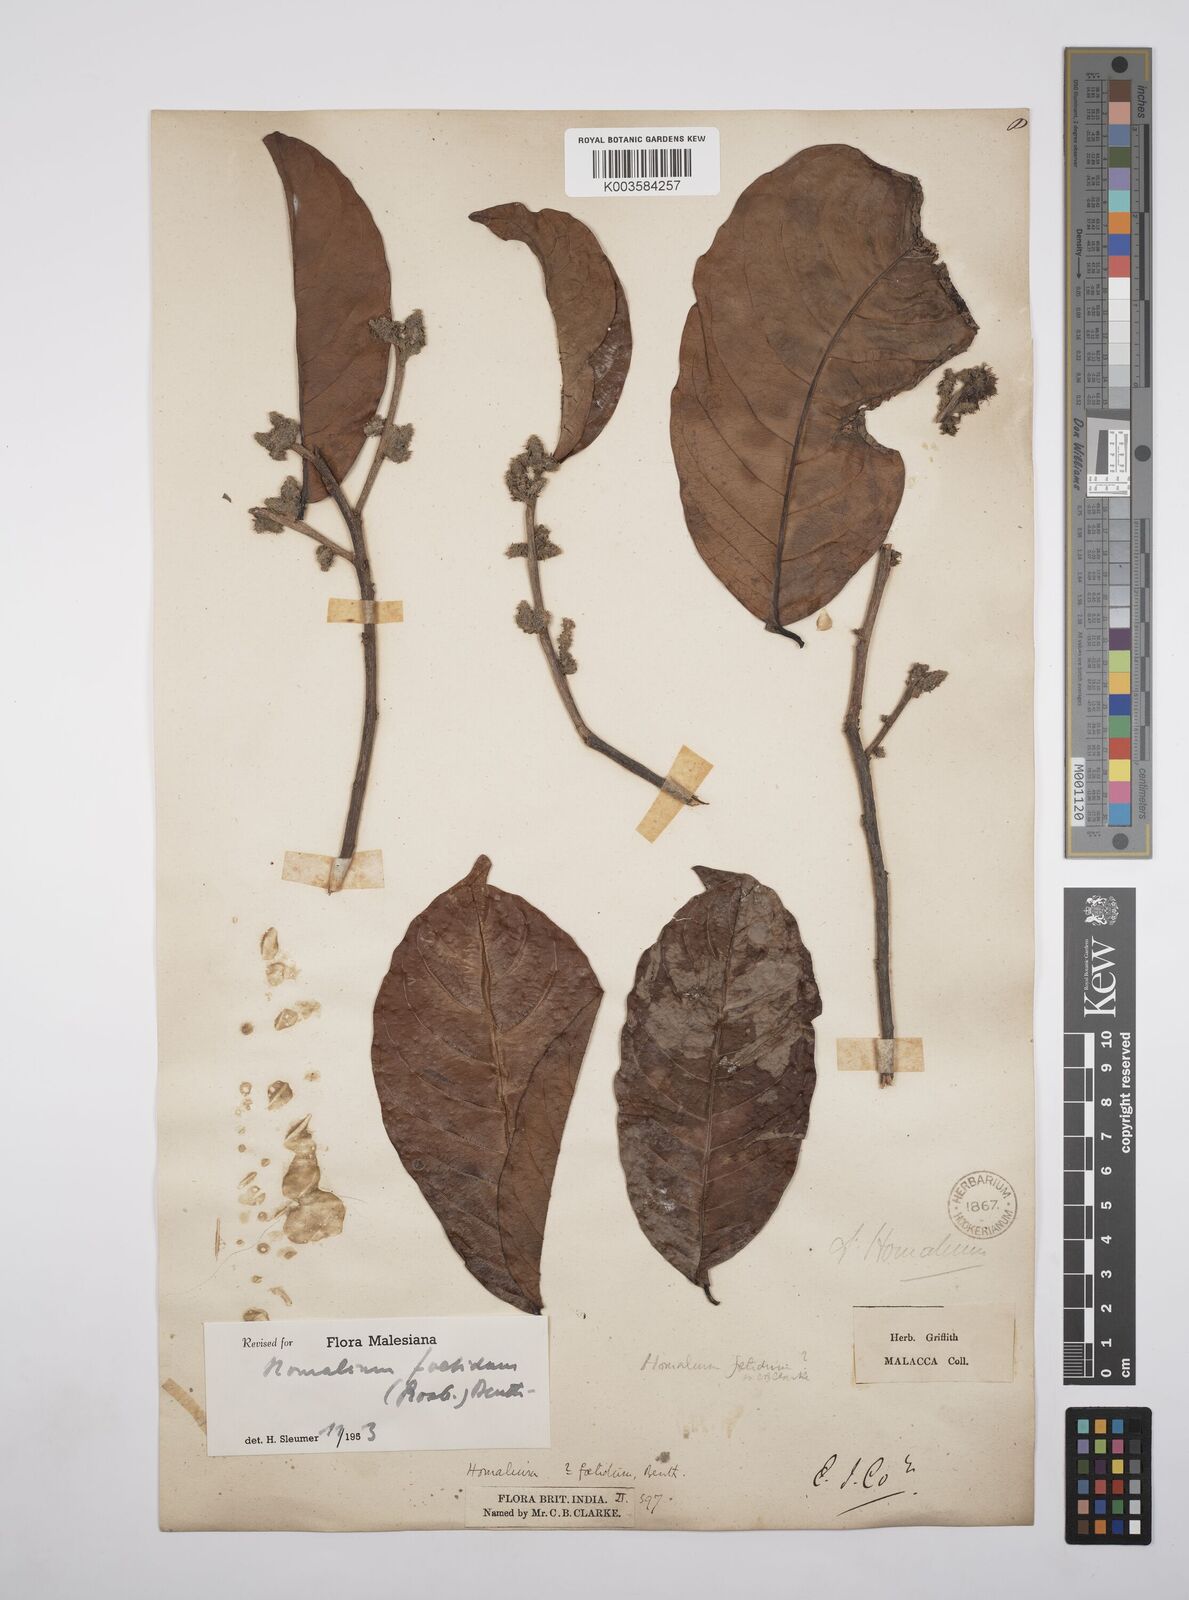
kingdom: Plantae
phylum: Tracheophyta
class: Magnoliopsida
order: Malpighiales
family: Salicaceae
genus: Homalium
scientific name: Homalium foetidum
